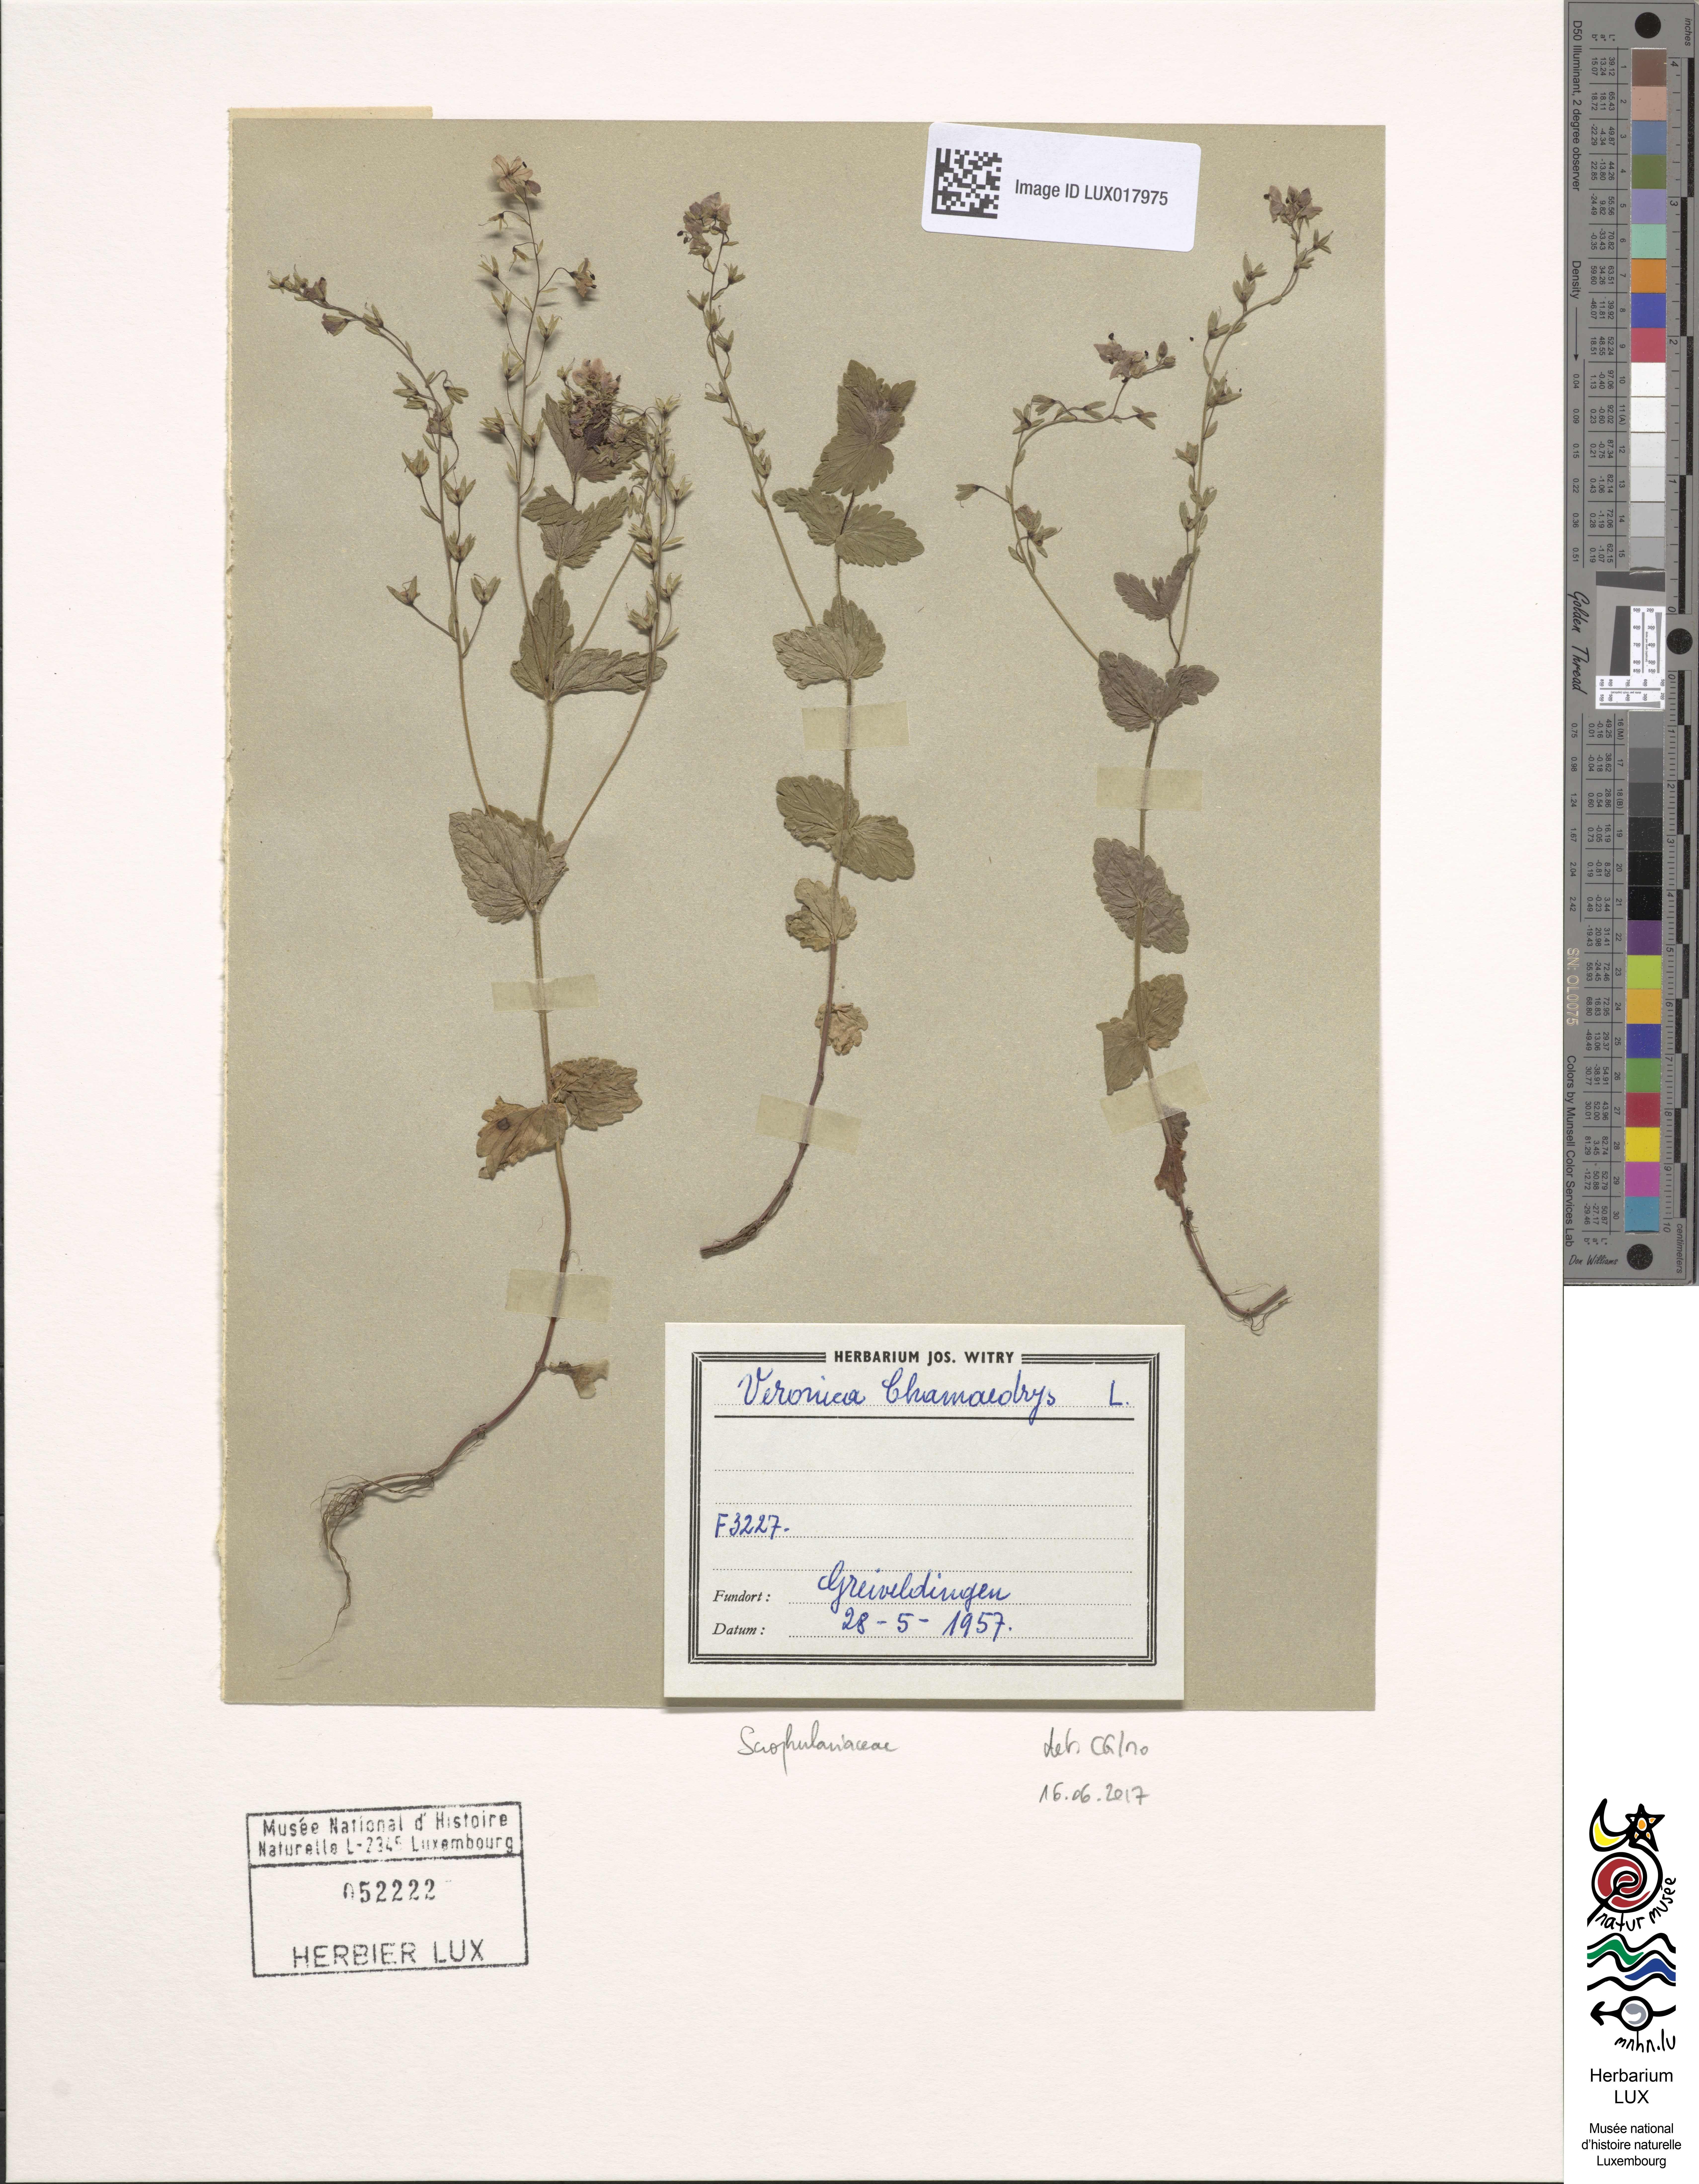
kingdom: Plantae
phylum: Tracheophyta
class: Magnoliopsida
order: Lamiales
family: Plantaginaceae
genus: Veronica
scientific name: Veronica chamaedrys
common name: Germander speedwell
